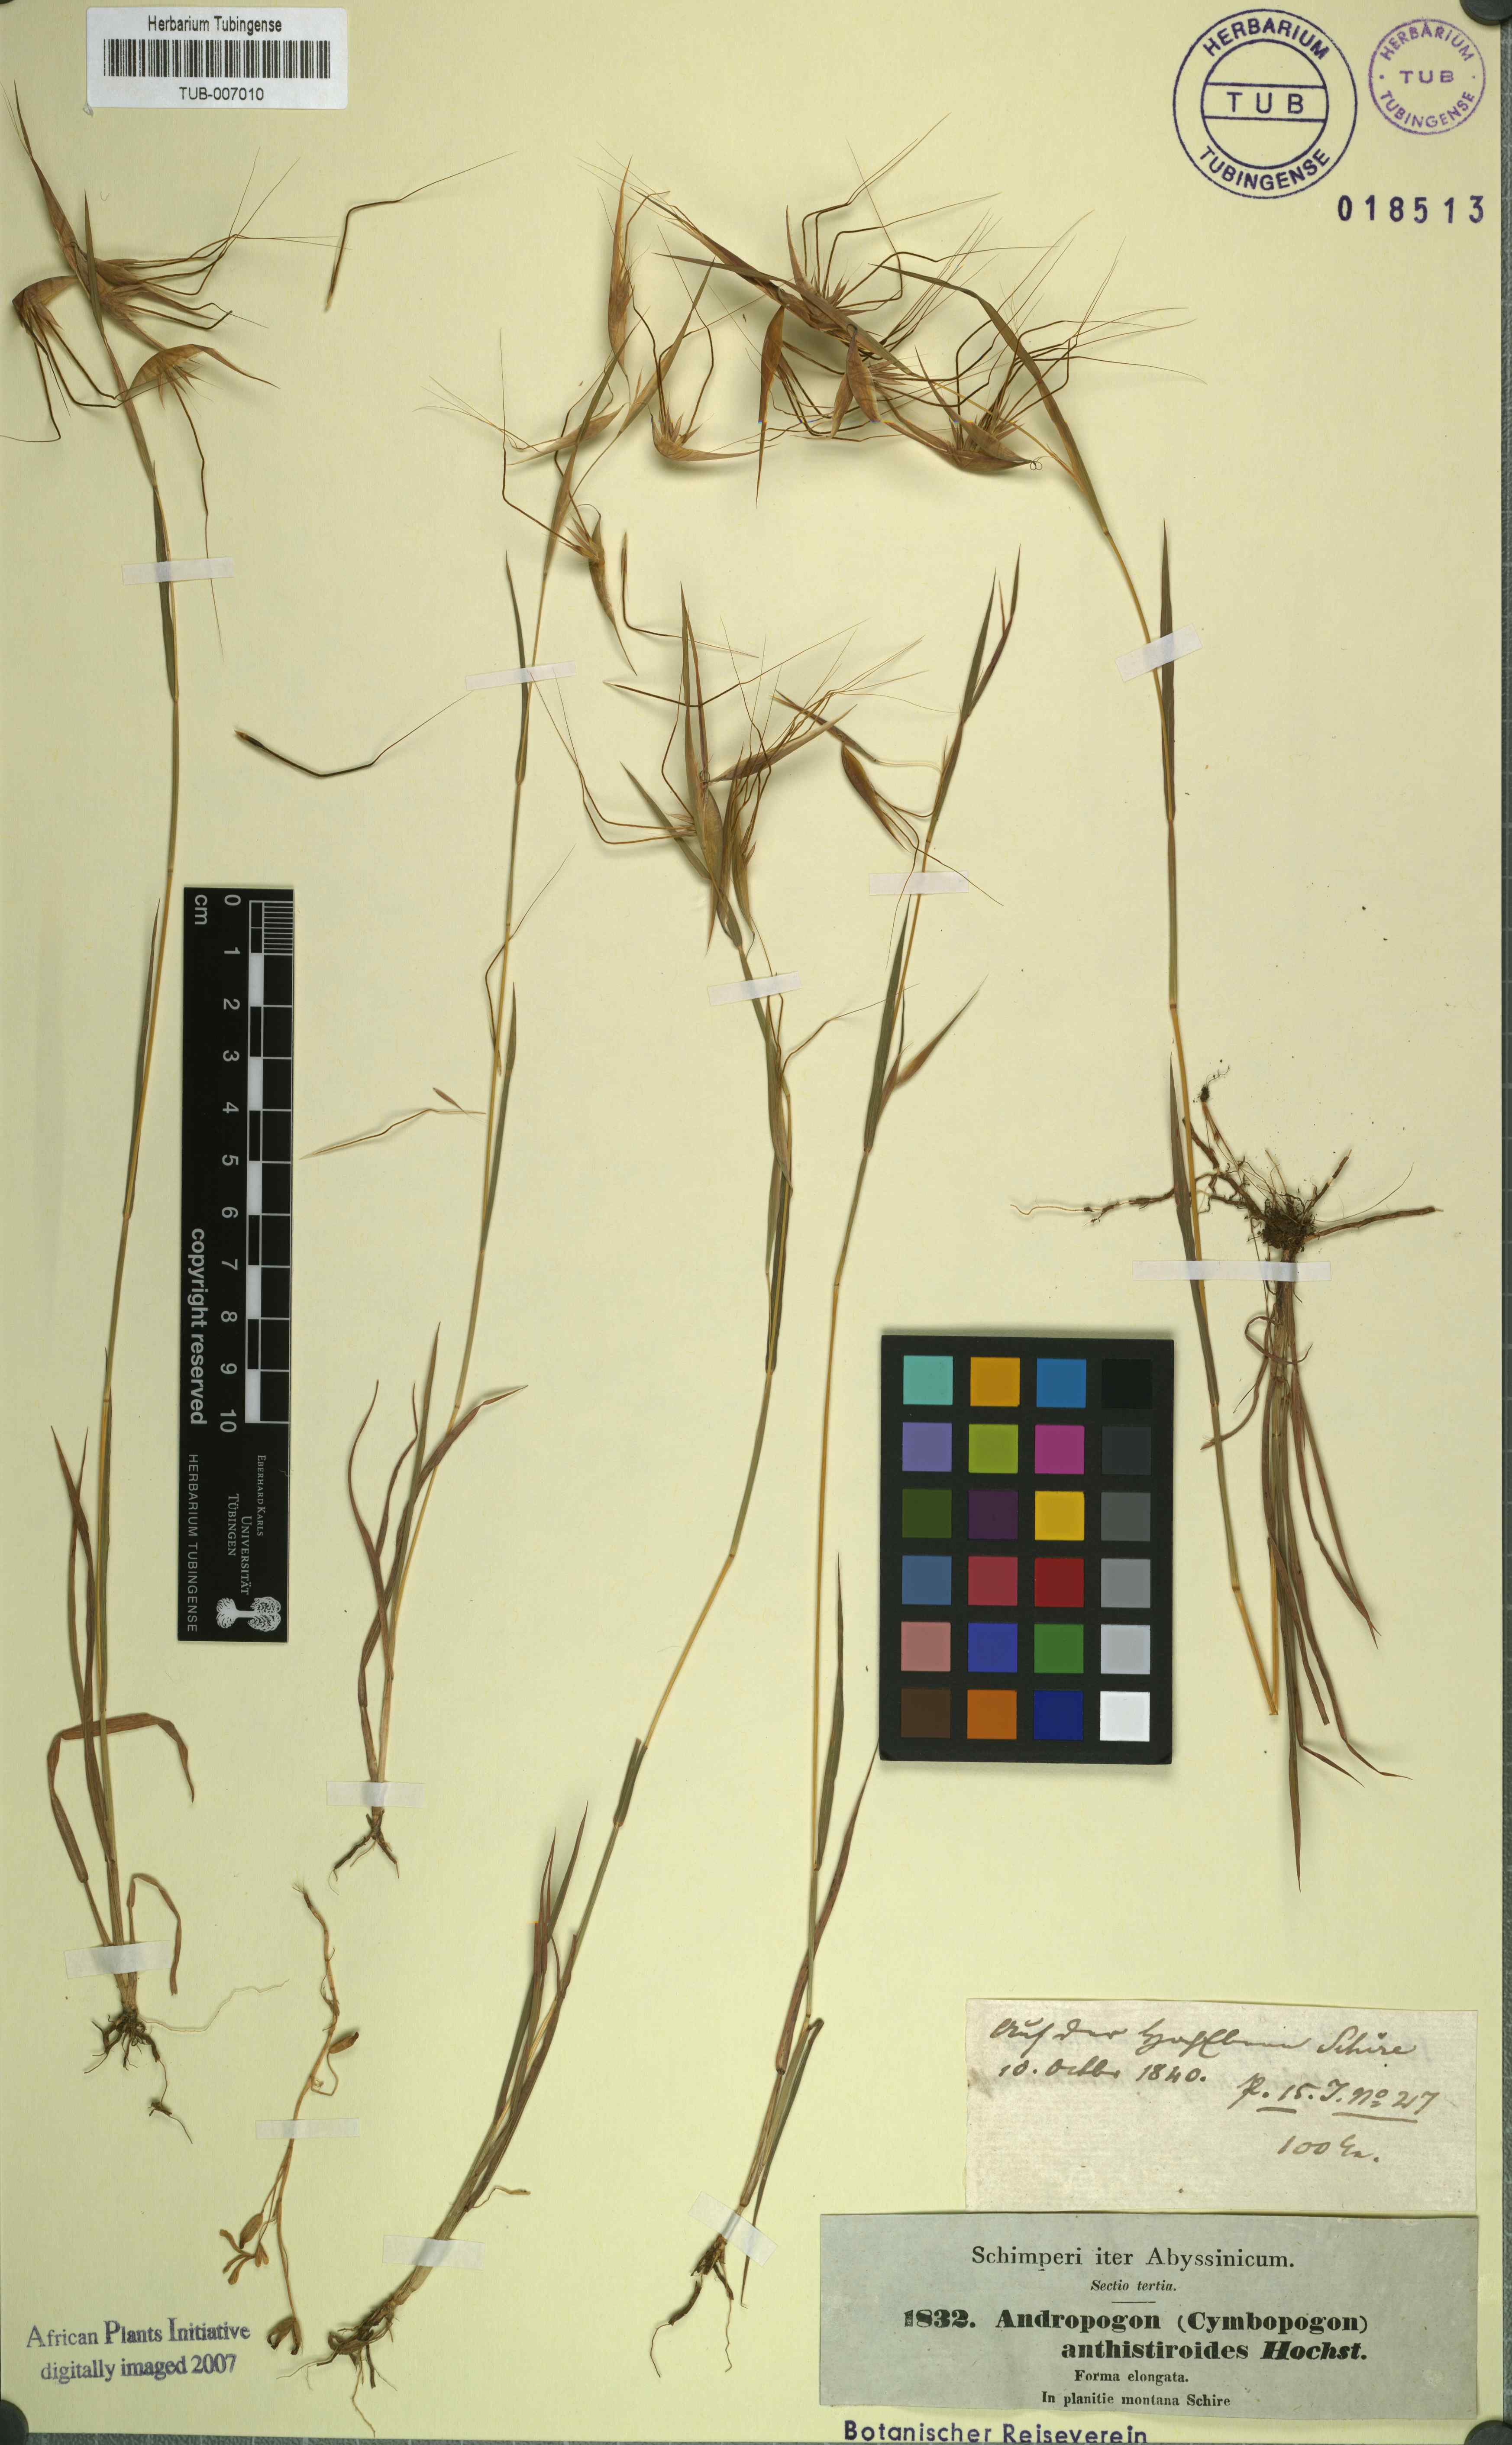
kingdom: Plantae
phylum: Tracheophyta
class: Liliopsida
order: Poales
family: Poaceae
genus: Andropogon
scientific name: Andropogon anthisterioides
